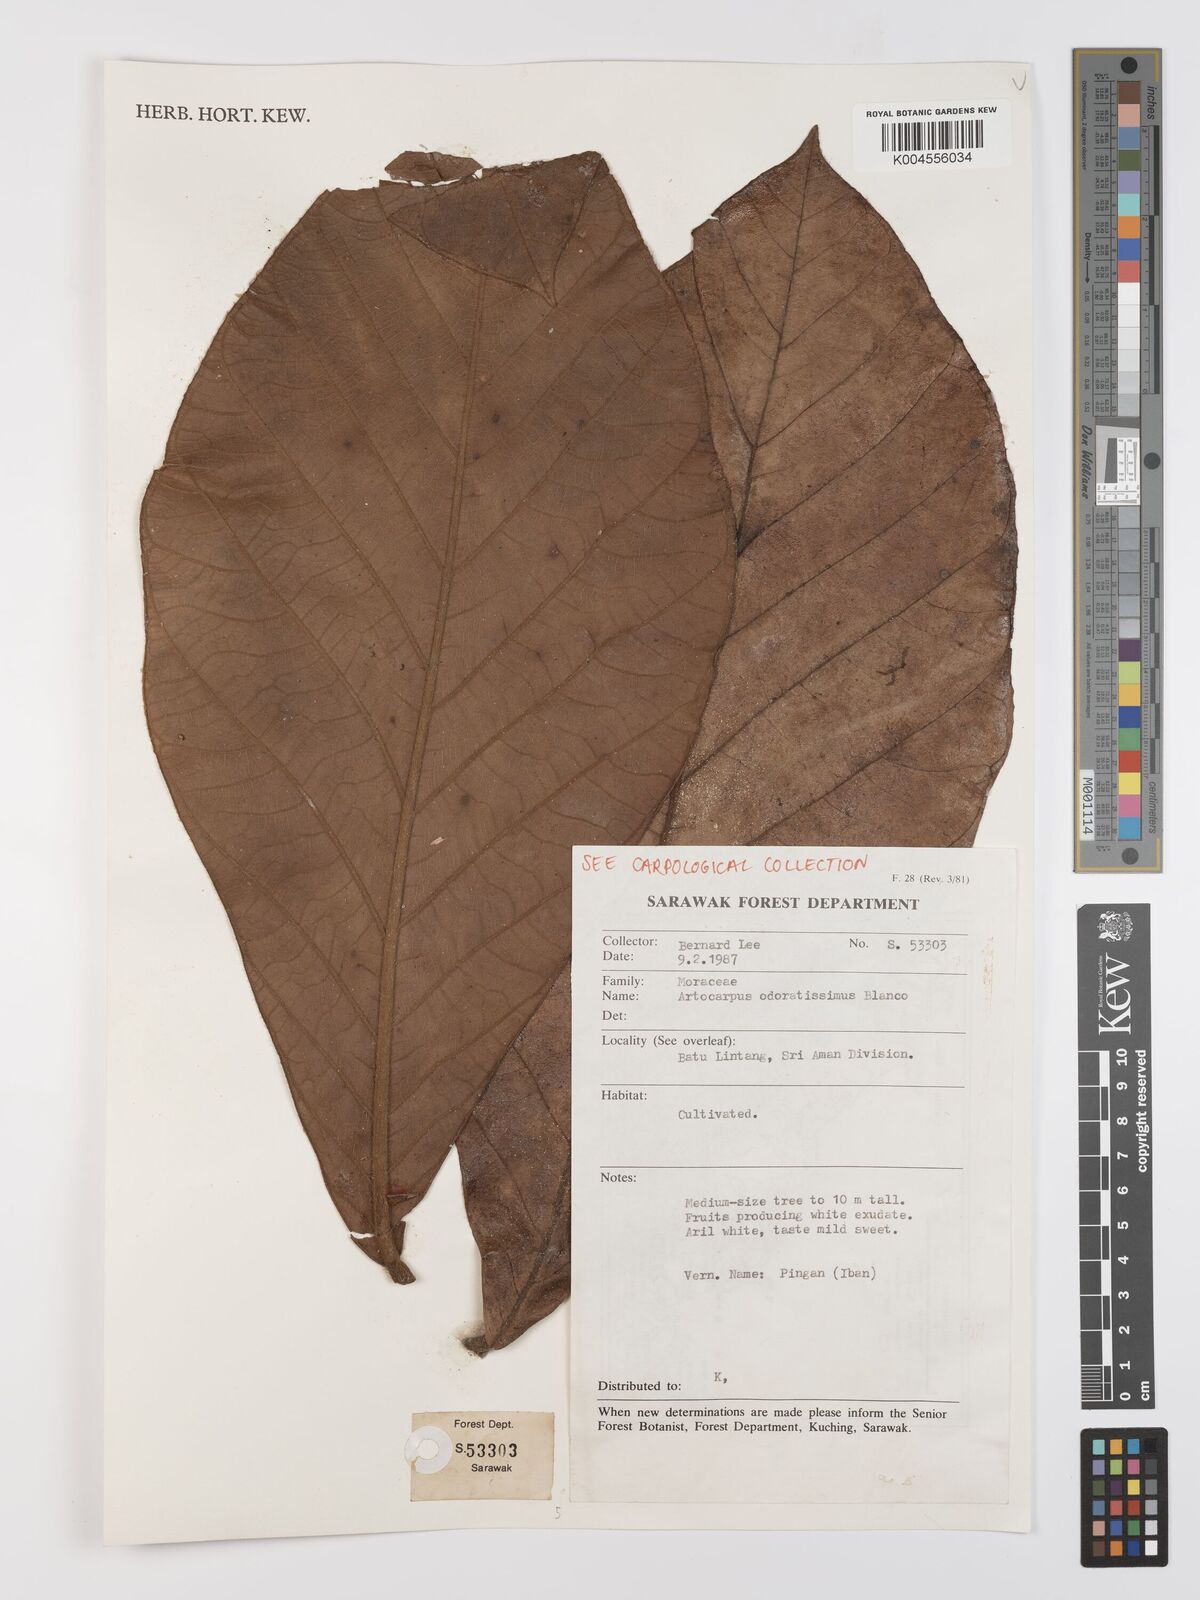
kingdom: Plantae
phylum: Tracheophyta
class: Magnoliopsida
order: Rosales
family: Moraceae
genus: Artocarpus
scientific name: Artocarpus odoratissimus
